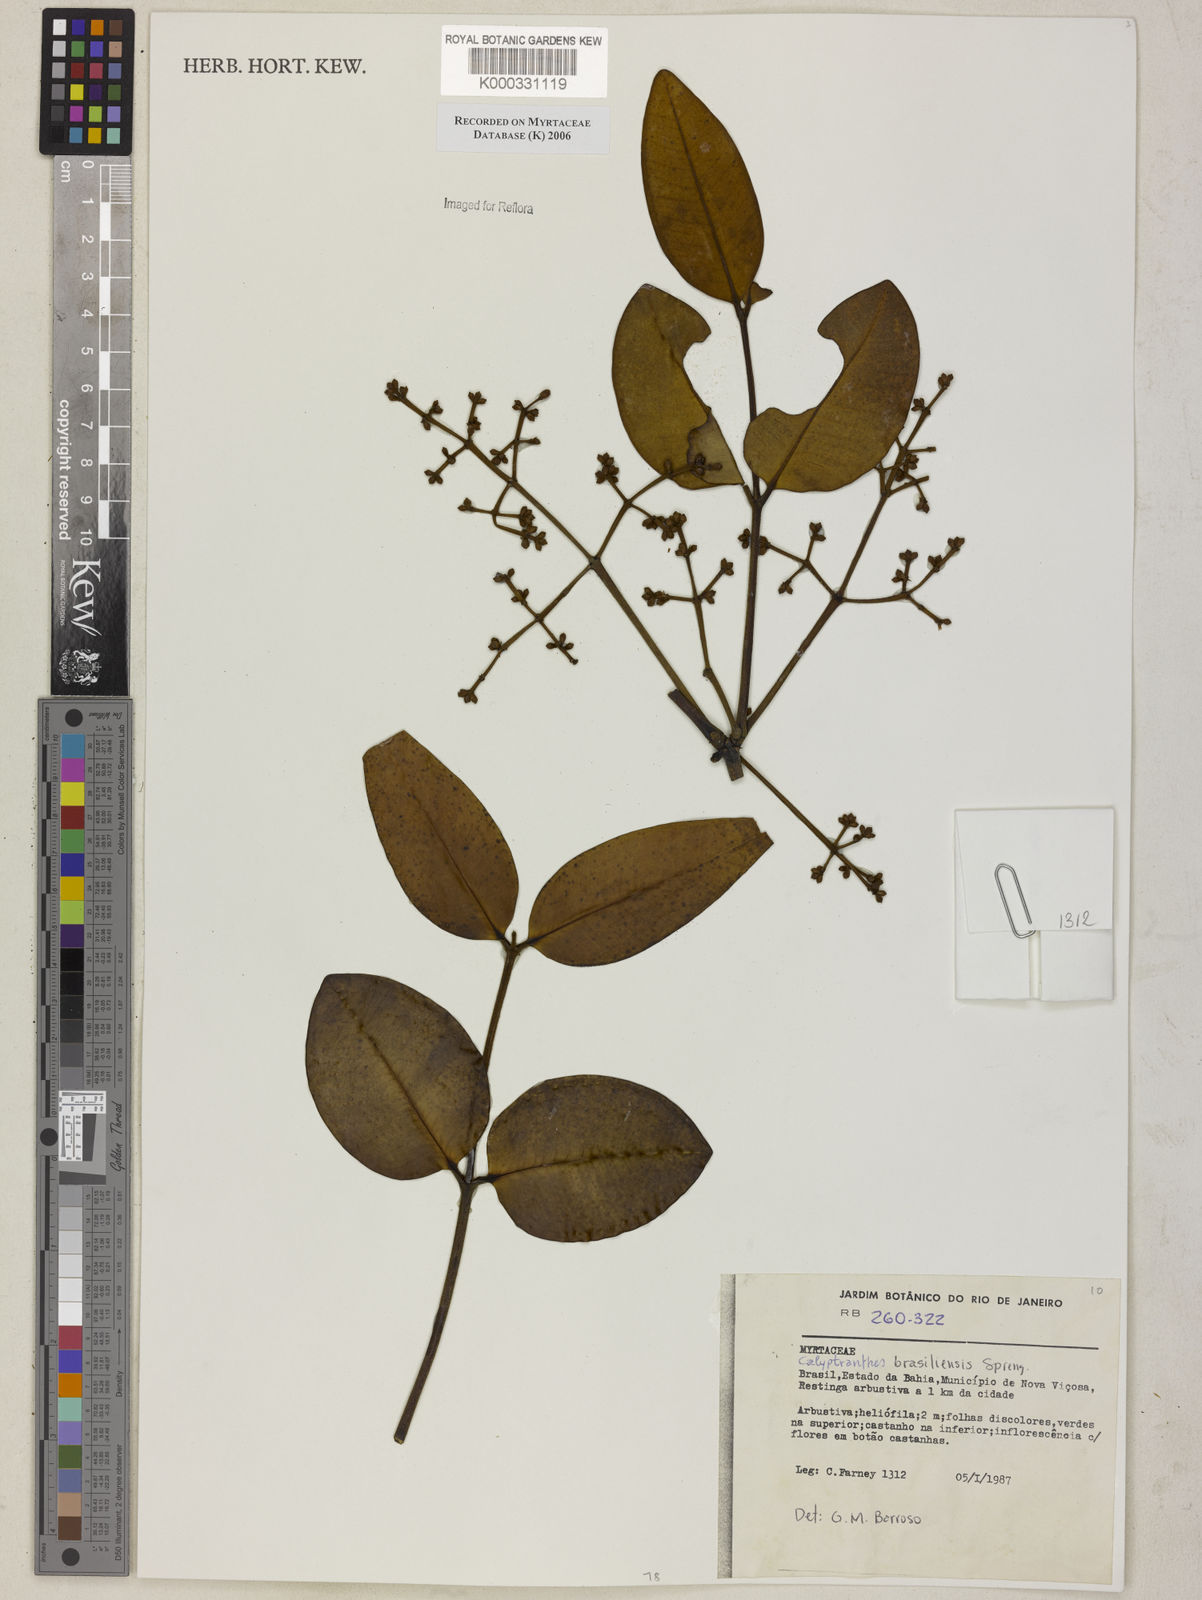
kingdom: Plantae
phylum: Tracheophyta
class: Magnoliopsida
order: Myrtales
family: Myrtaceae
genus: Myrcia
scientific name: Myrcia neobrasiliensis
